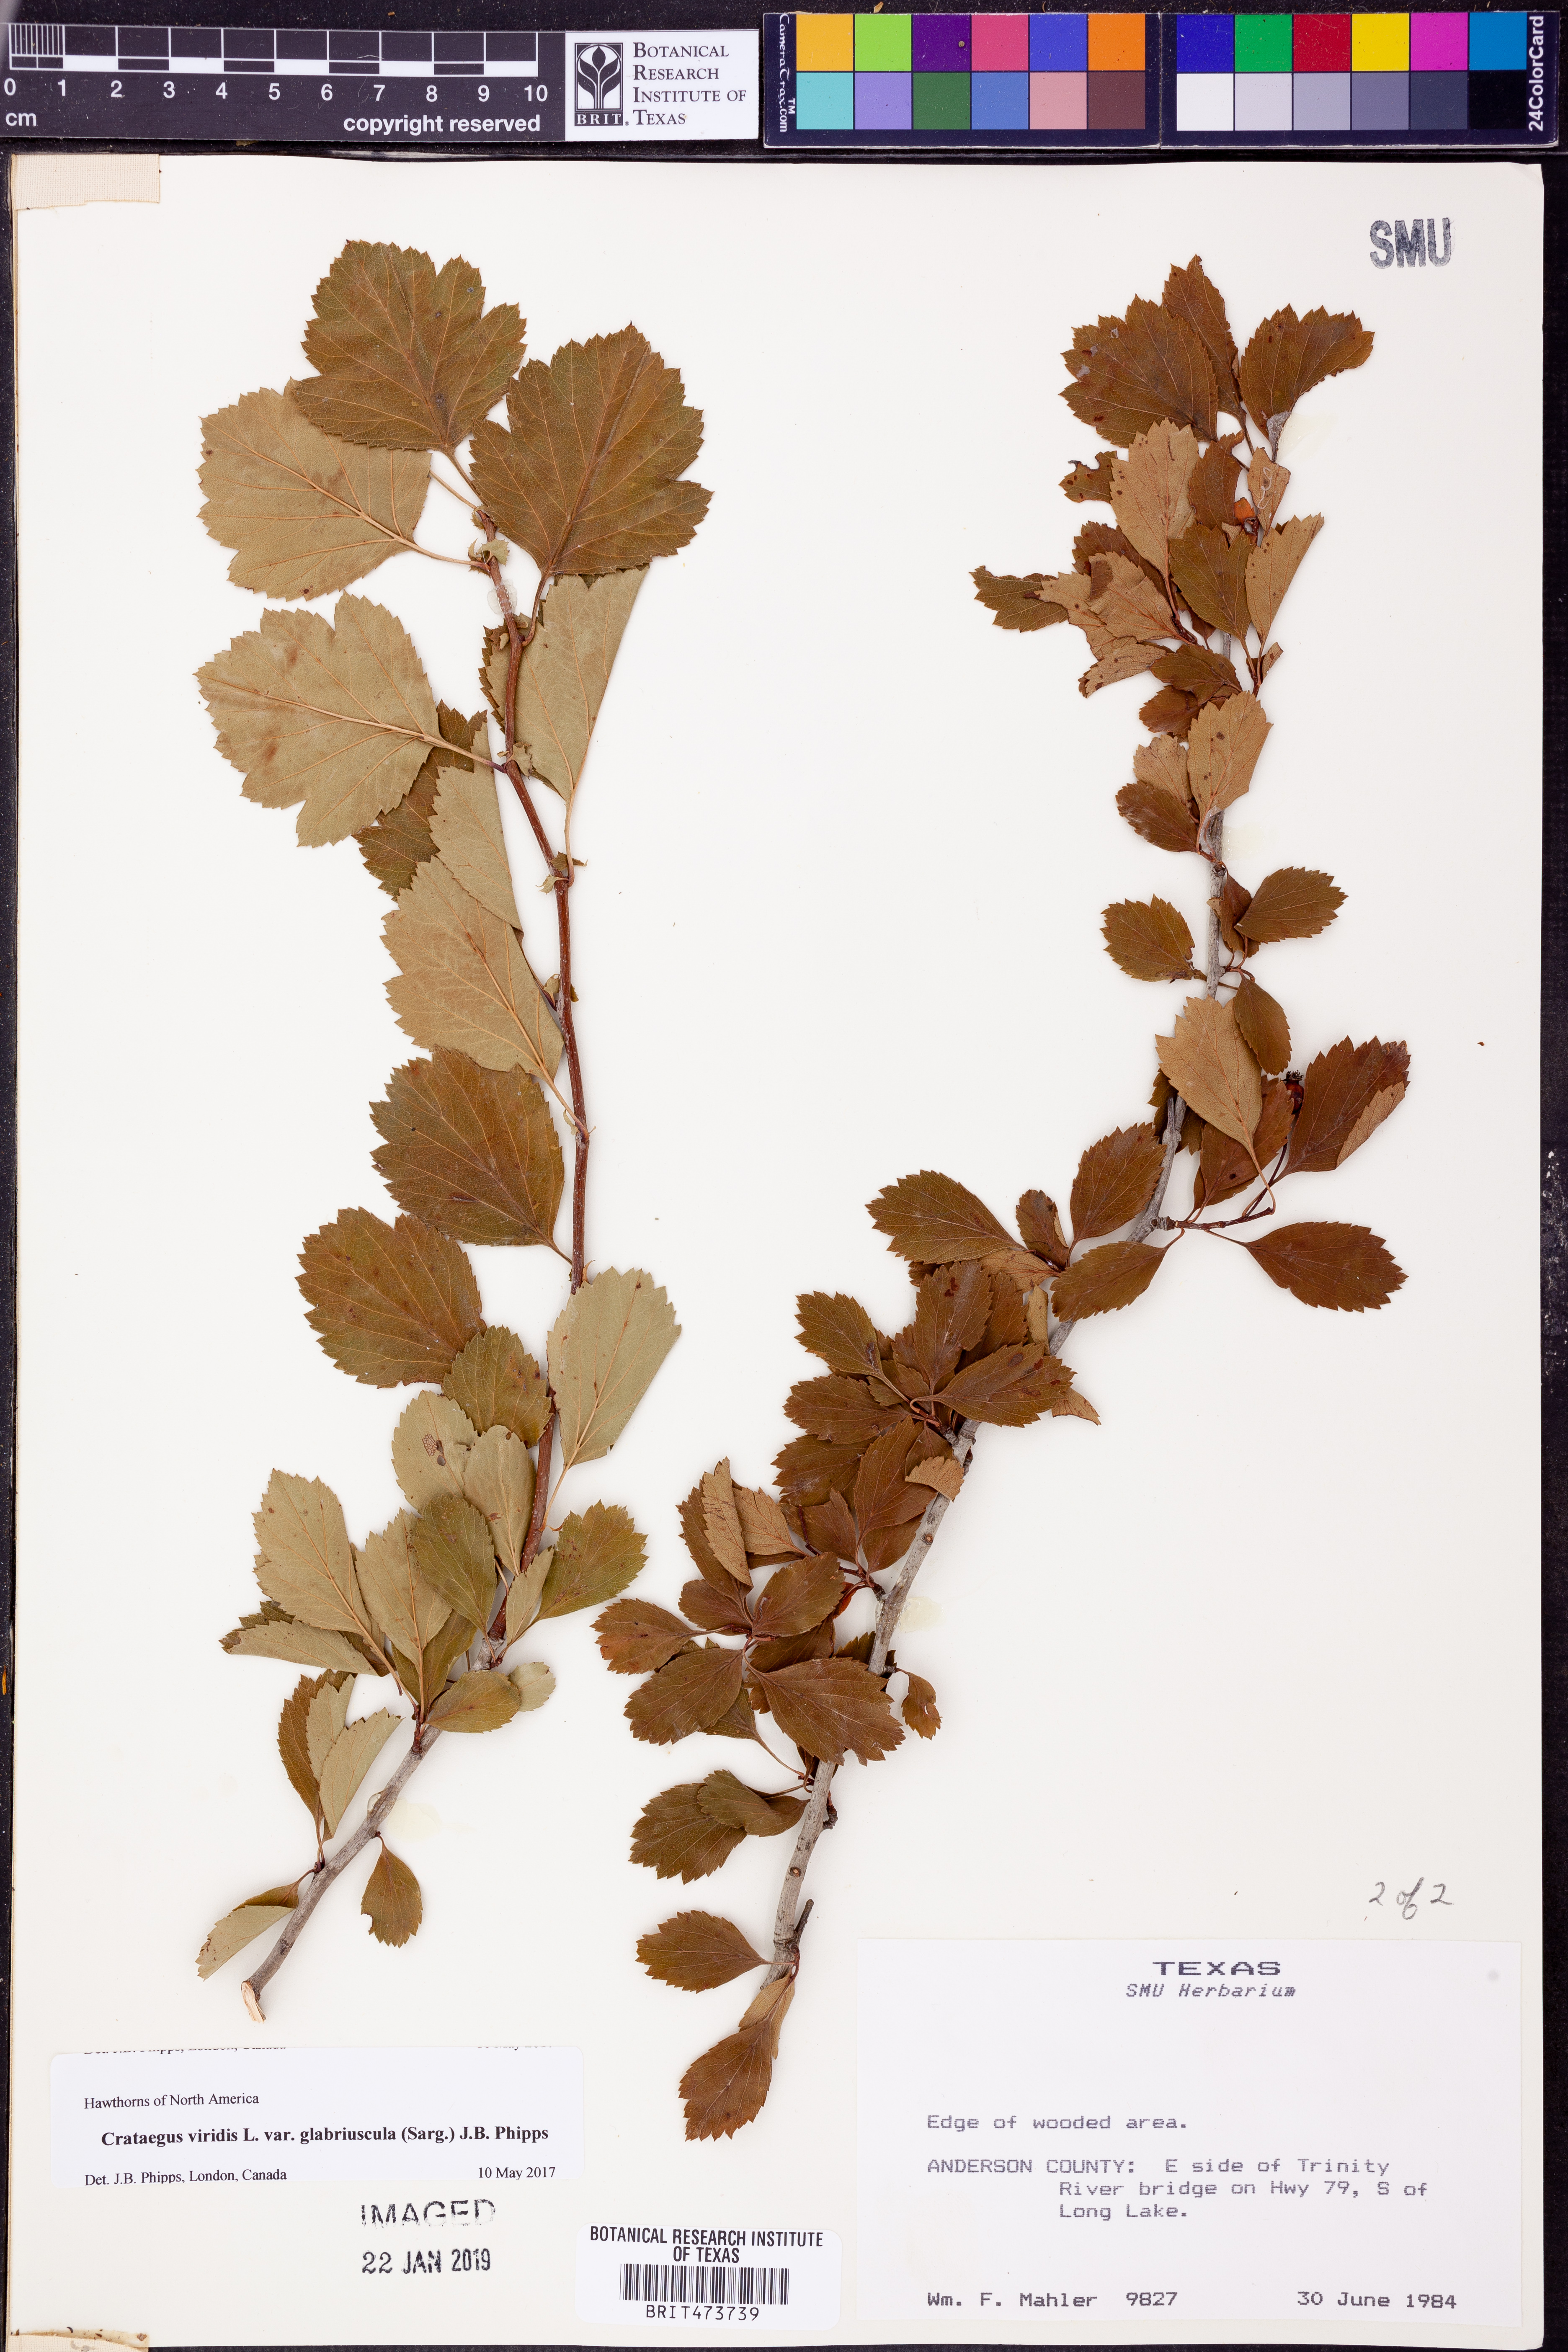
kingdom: Plantae
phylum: Tracheophyta
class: Magnoliopsida
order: Rosales
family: Rosaceae
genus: Crataegus
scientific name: Crataegus viridis
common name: Southernthorn
